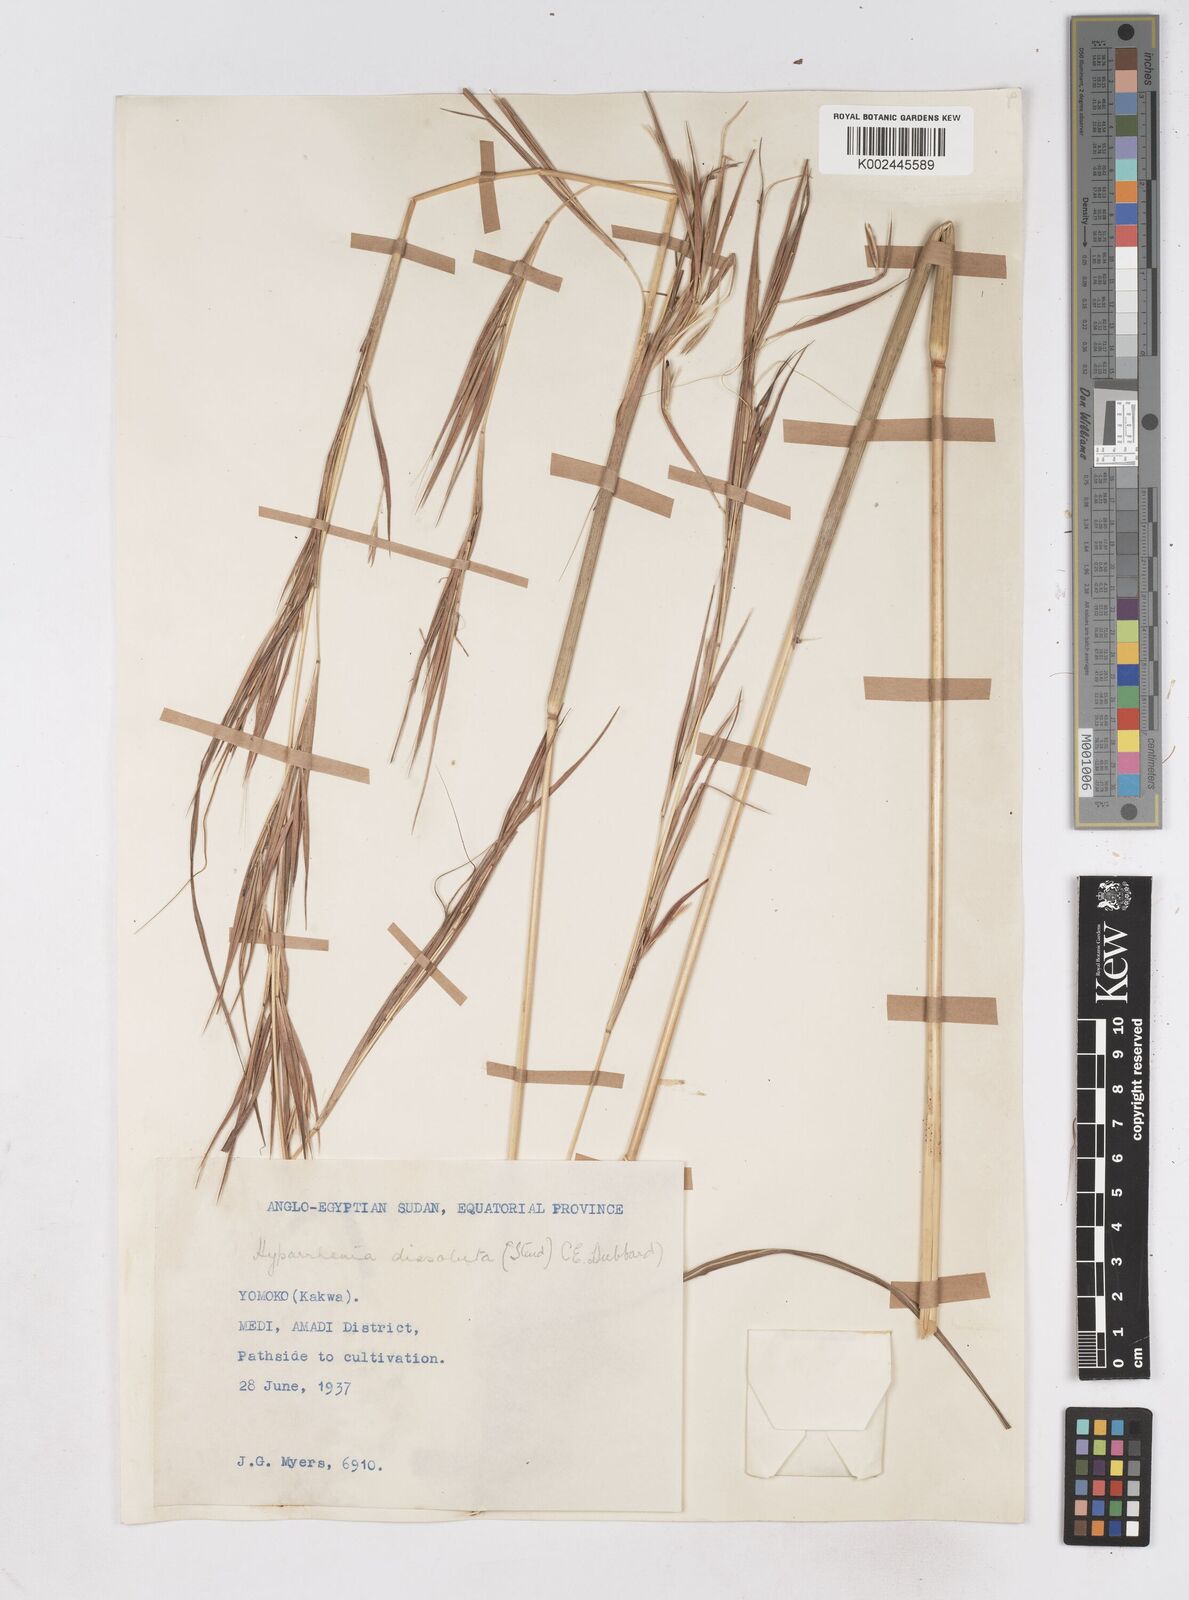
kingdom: Plantae
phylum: Tracheophyta
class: Liliopsida
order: Poales
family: Poaceae
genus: Hyperthelia
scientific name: Hyperthelia dissoluta
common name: Yellow thatching grass
